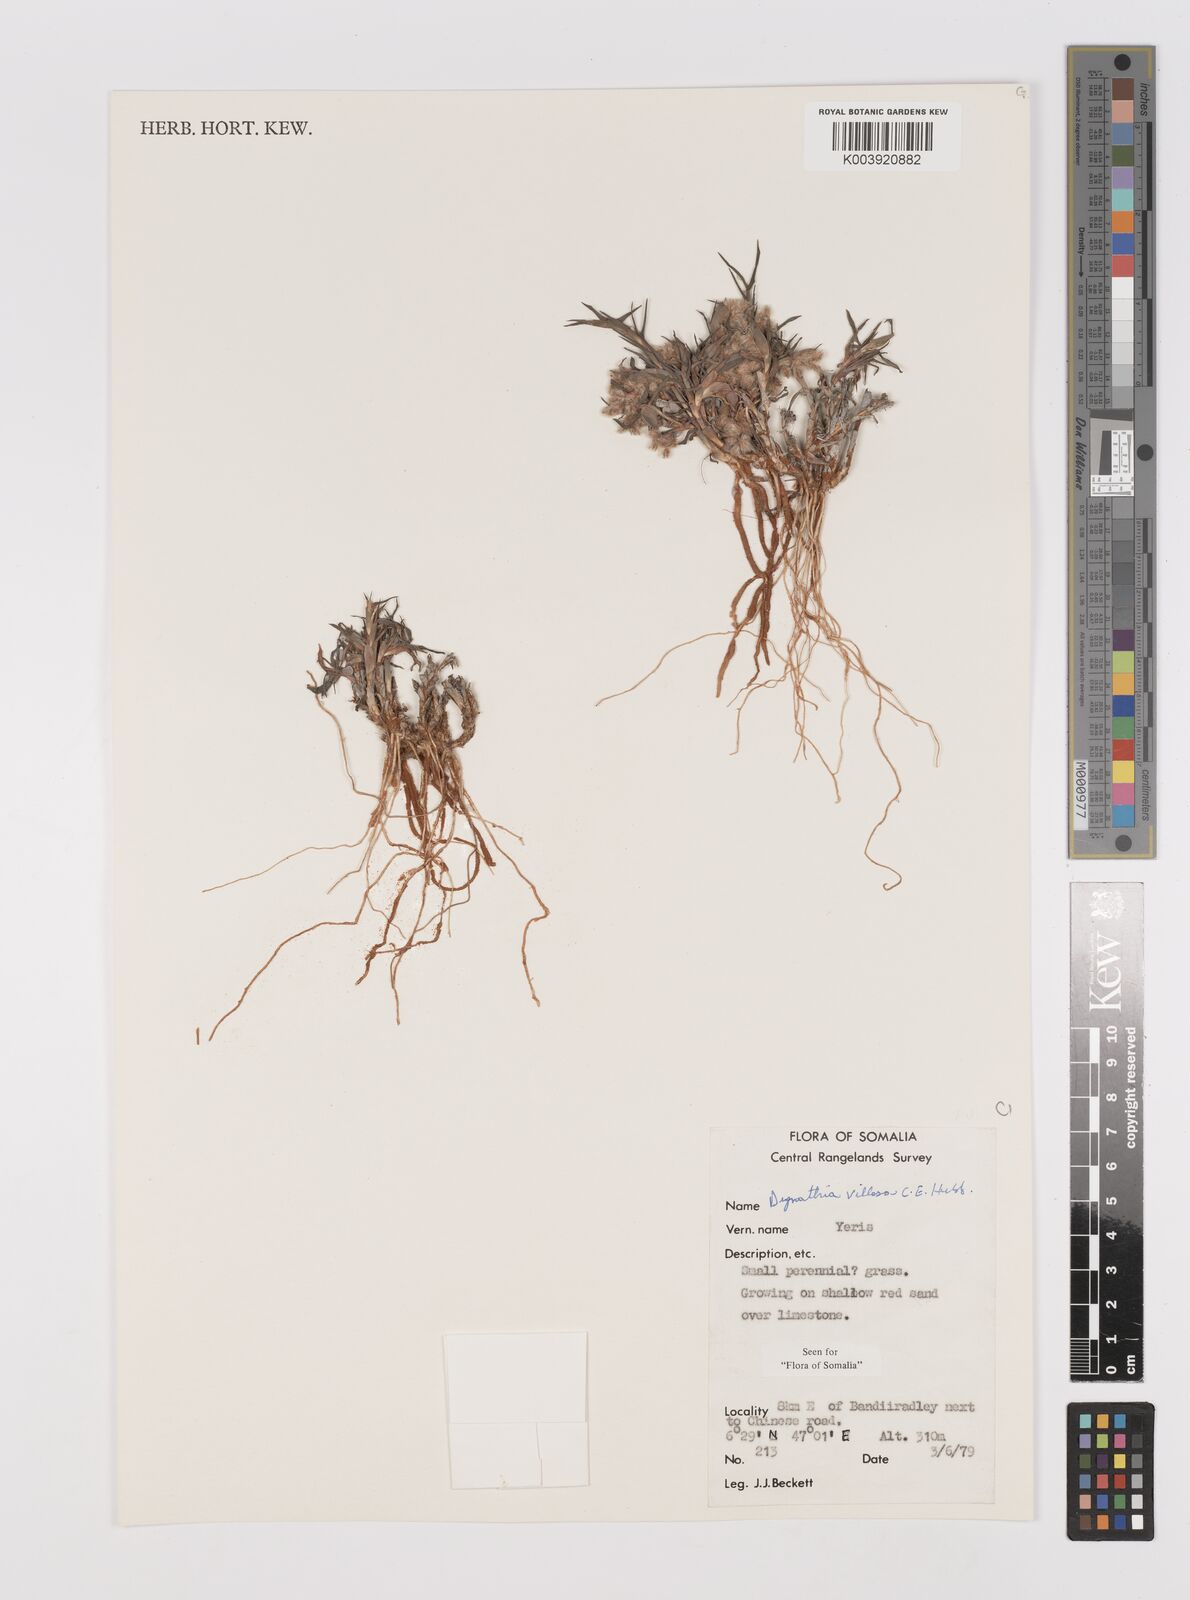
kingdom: Plantae
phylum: Tracheophyta
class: Liliopsida
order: Poales
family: Poaceae
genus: Dignathia
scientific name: Dignathia villosa
